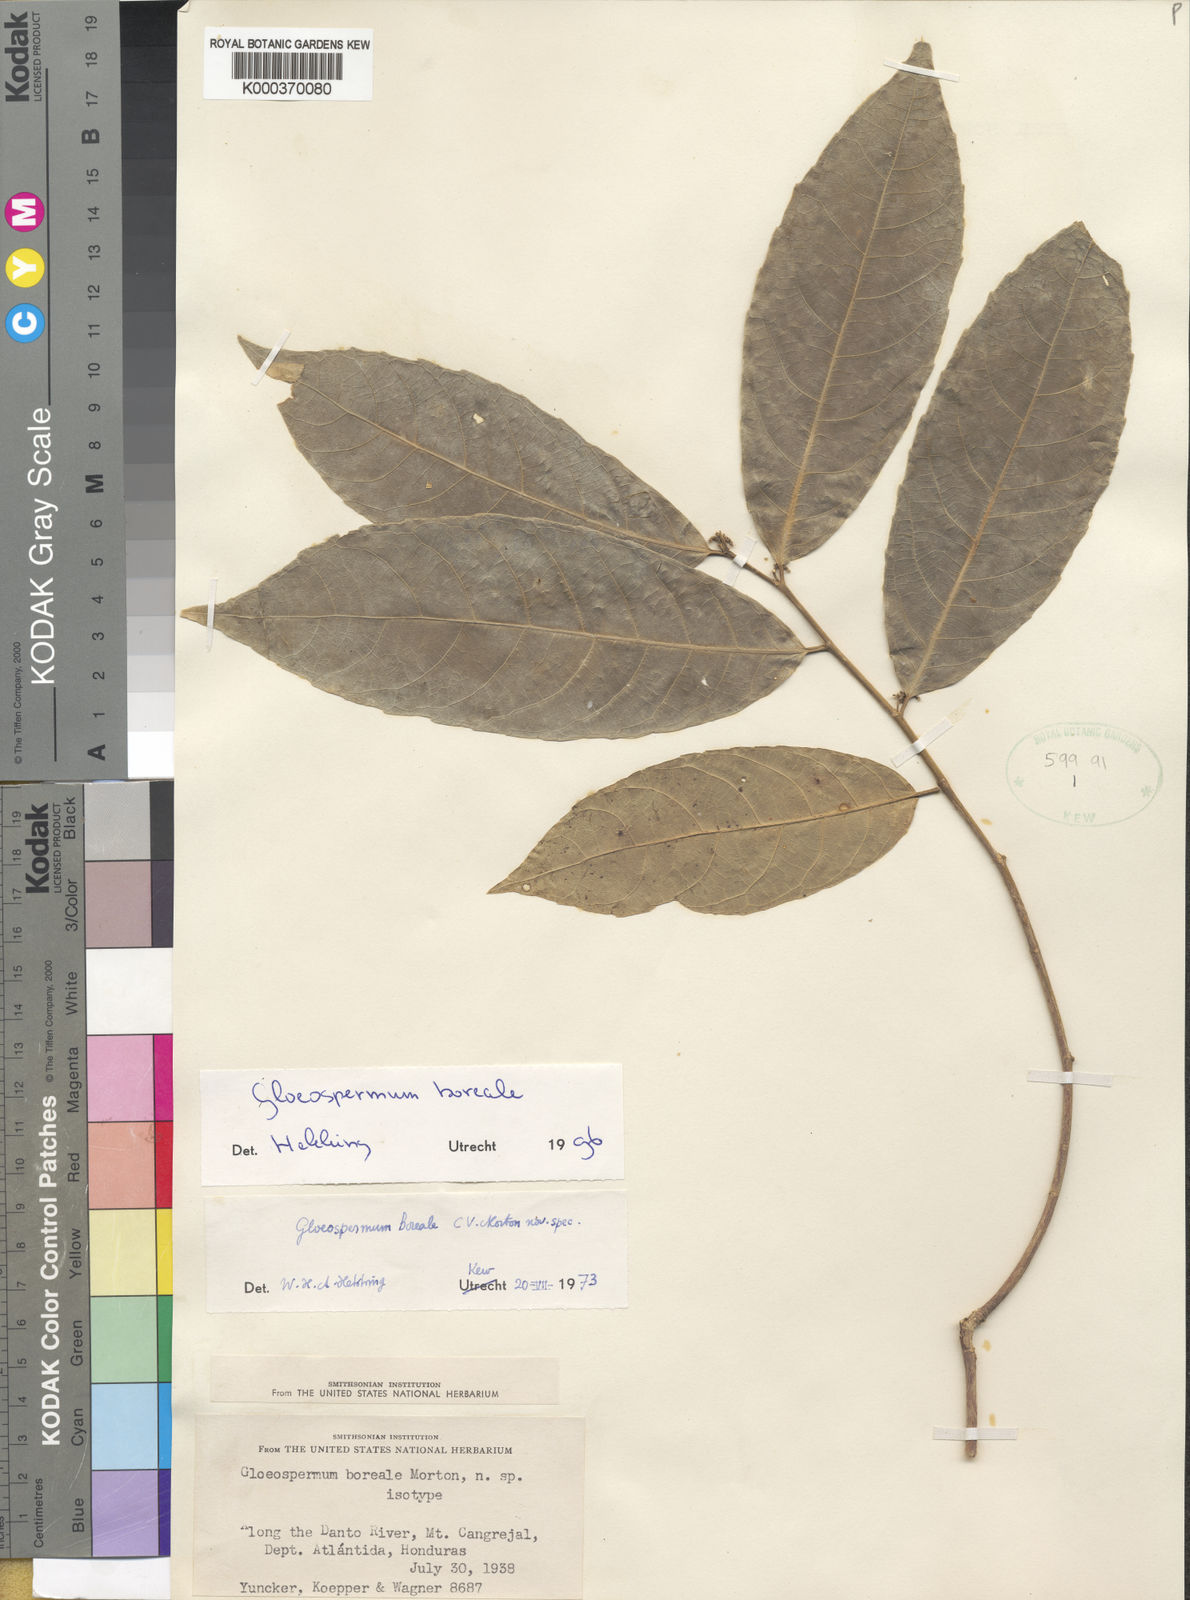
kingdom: Plantae
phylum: Tracheophyta
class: Magnoliopsida
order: Malpighiales
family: Violaceae
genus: Gloeospermum
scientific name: Gloeospermum boreale
